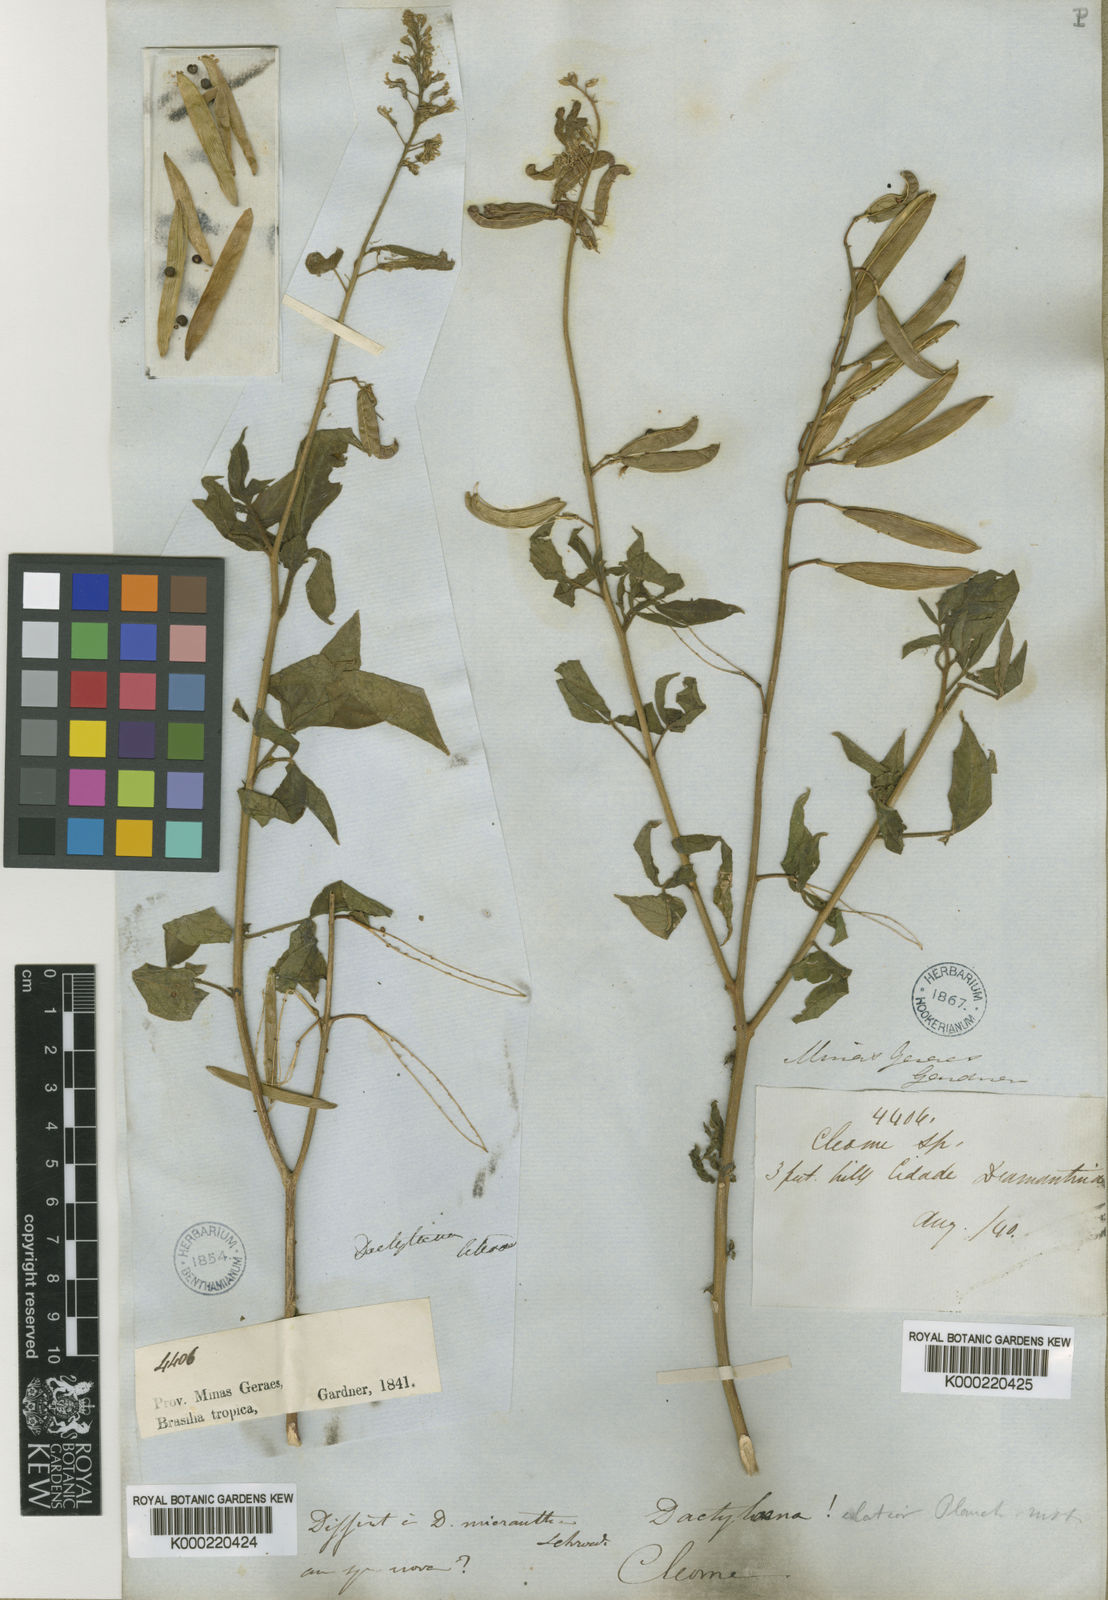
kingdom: Plantae
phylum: Tracheophyta
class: Magnoliopsida
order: Brassicales
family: Cleomaceae
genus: Dactylaena
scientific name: Dactylaena pohliana
